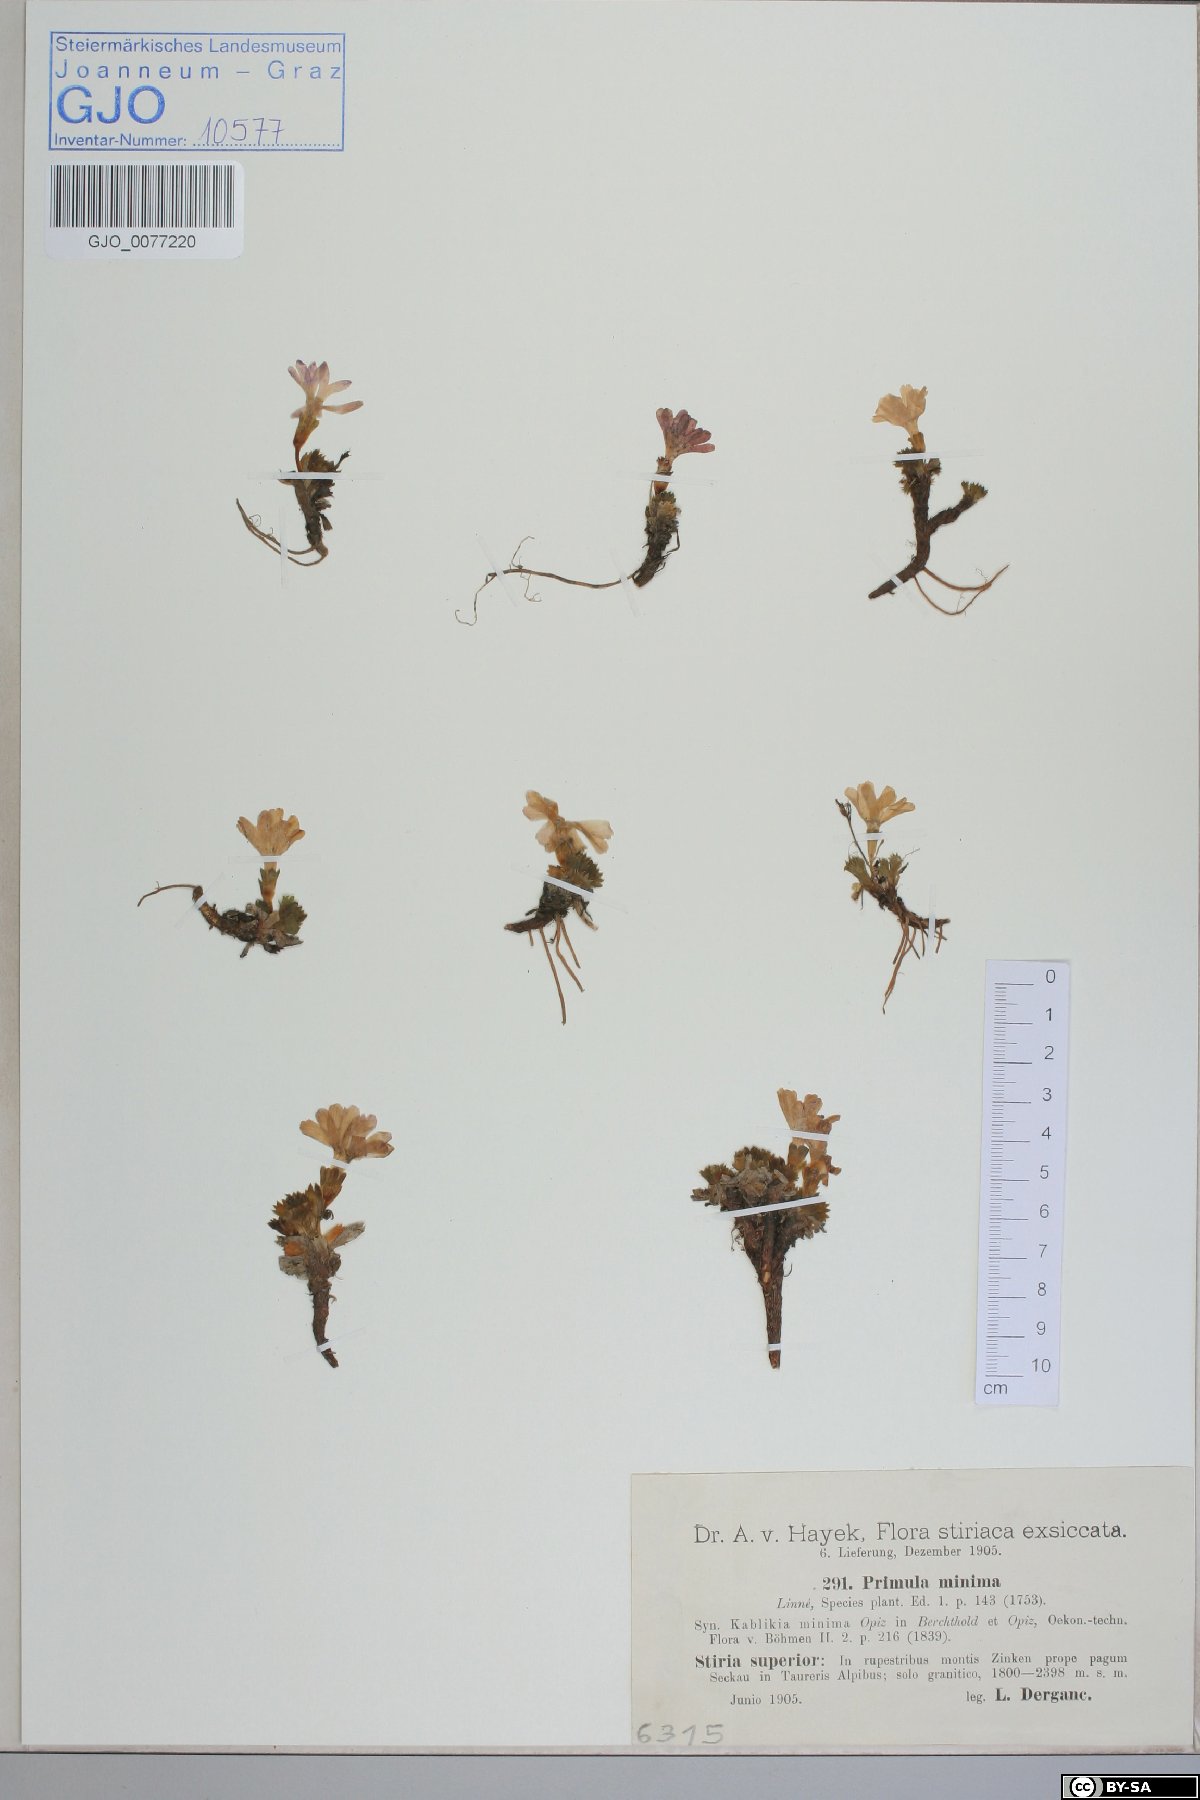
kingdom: Plantae
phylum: Tracheophyta
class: Magnoliopsida
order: Ericales
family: Primulaceae
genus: Primula
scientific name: Primula minima
